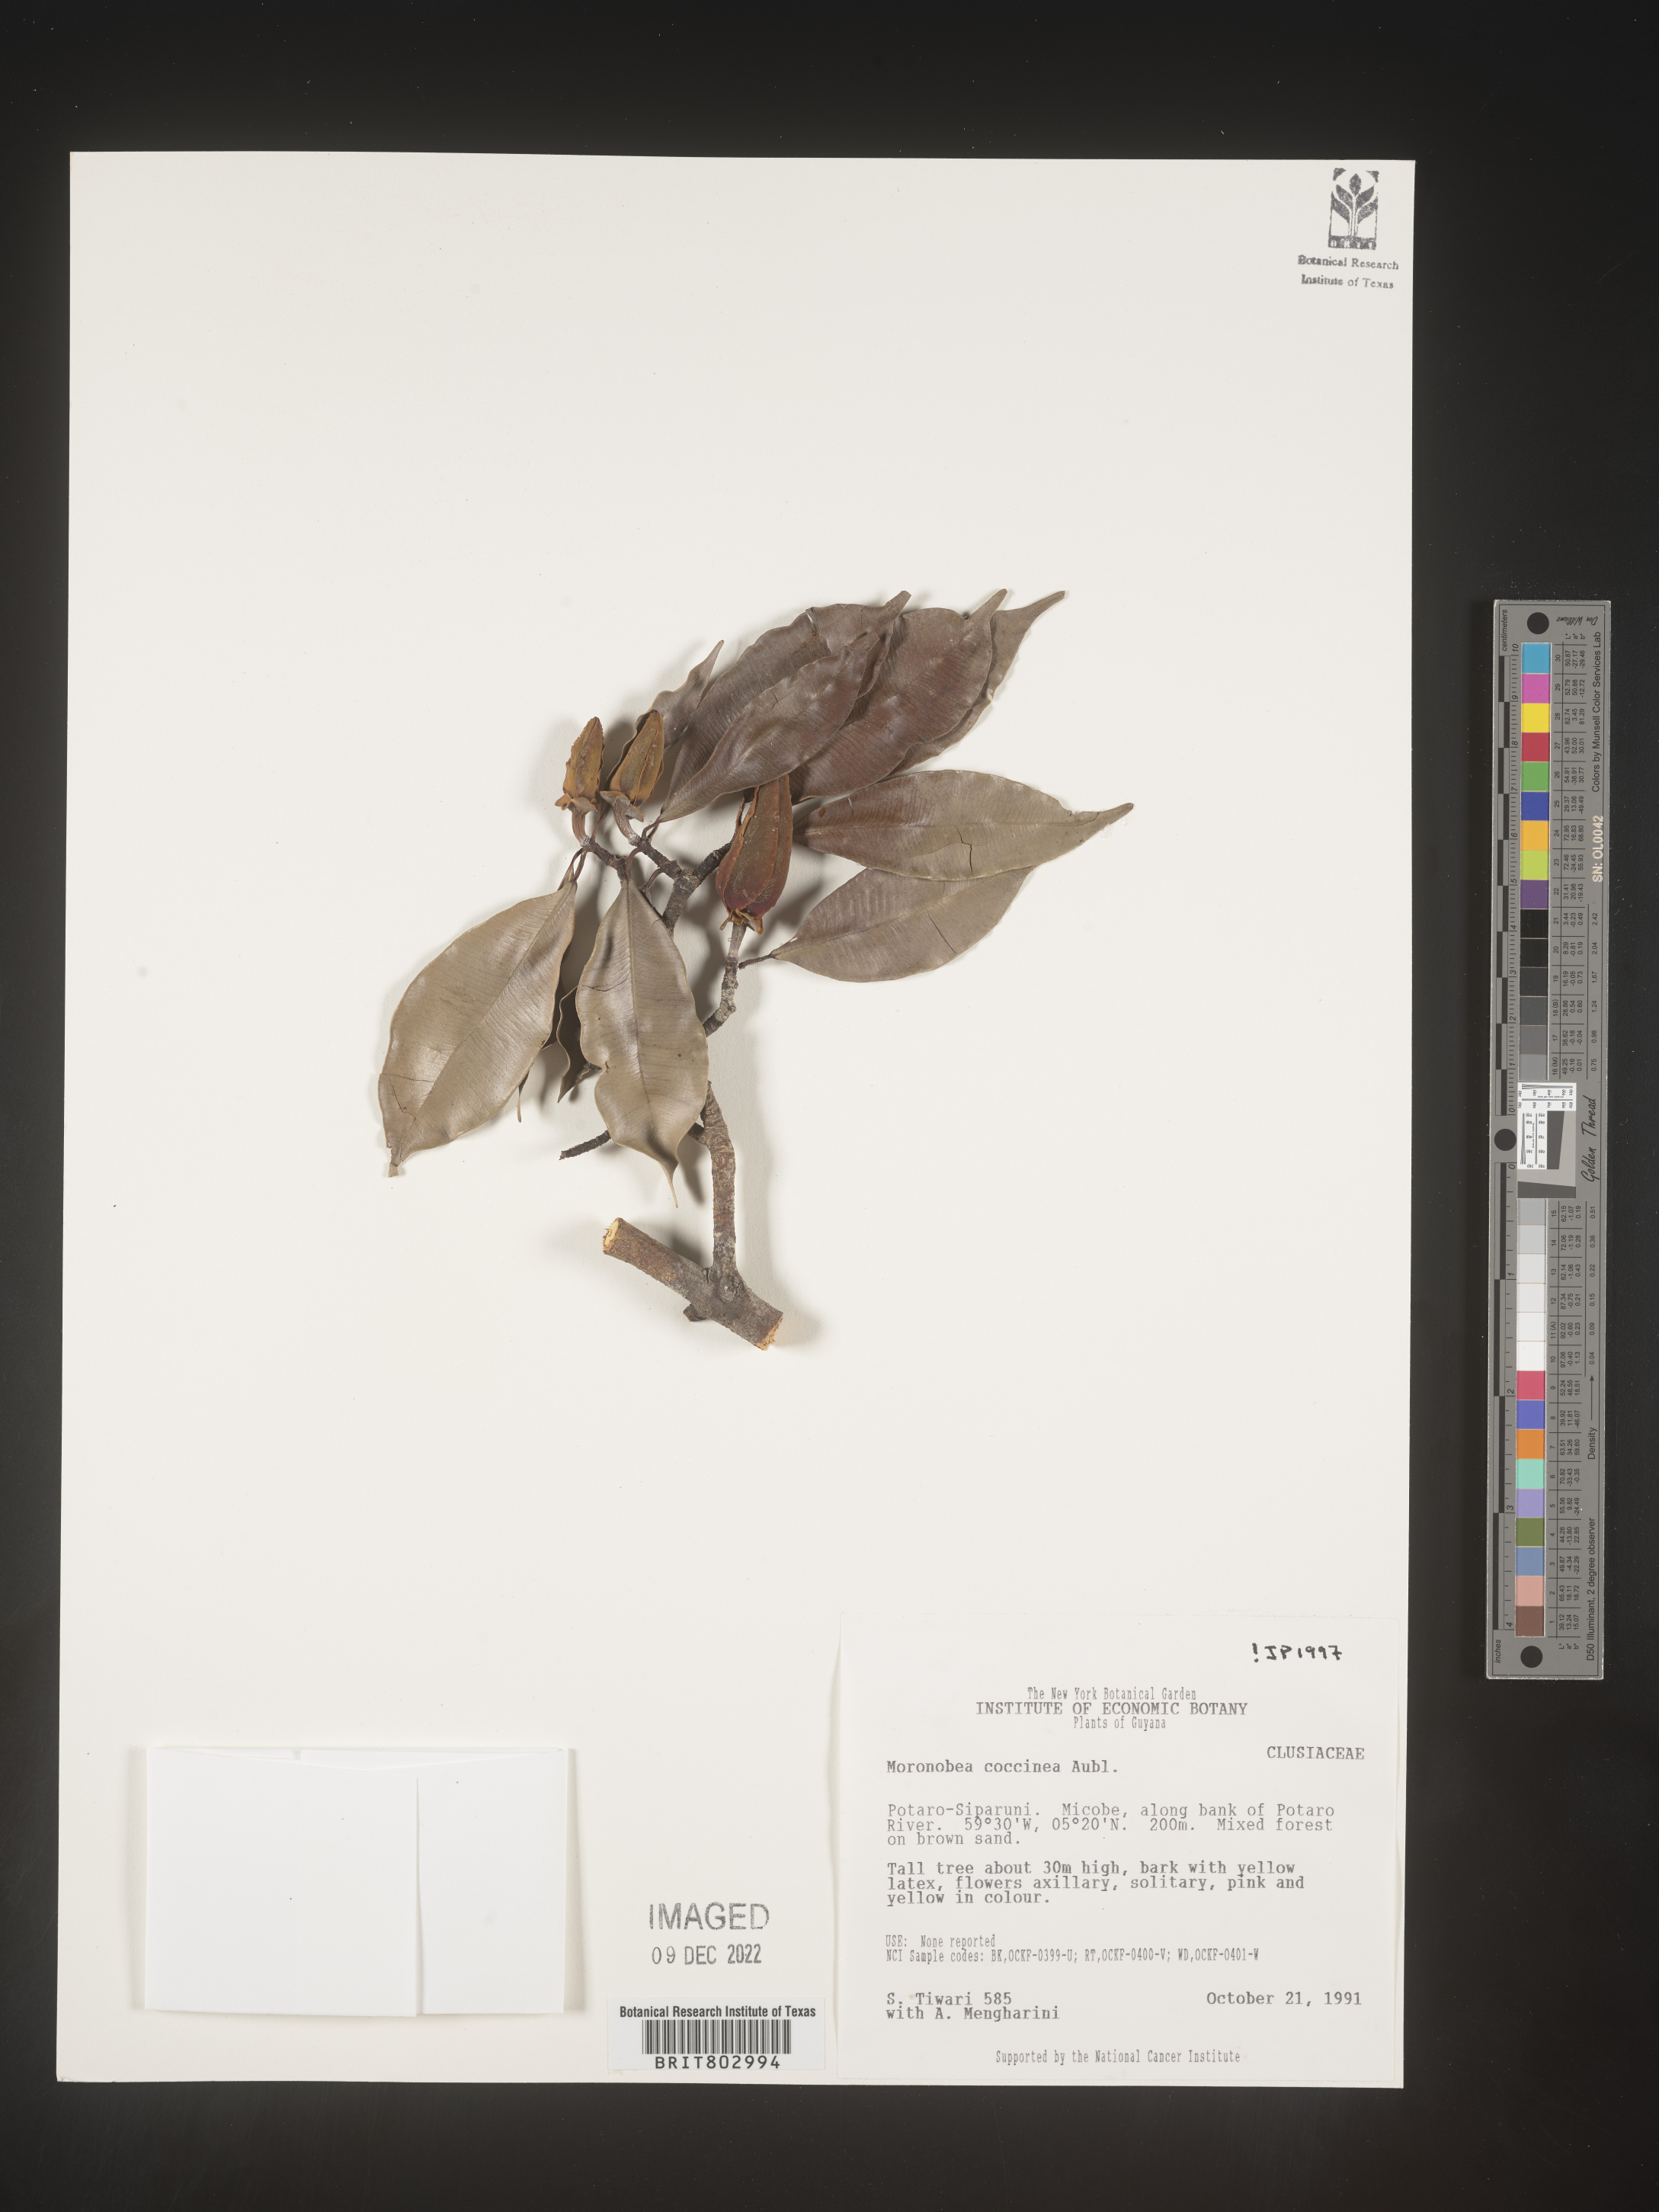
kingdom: Plantae
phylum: Tracheophyta
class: Magnoliopsida
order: Malpighiales
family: Clusiaceae
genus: Moronobea
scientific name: Moronobea
